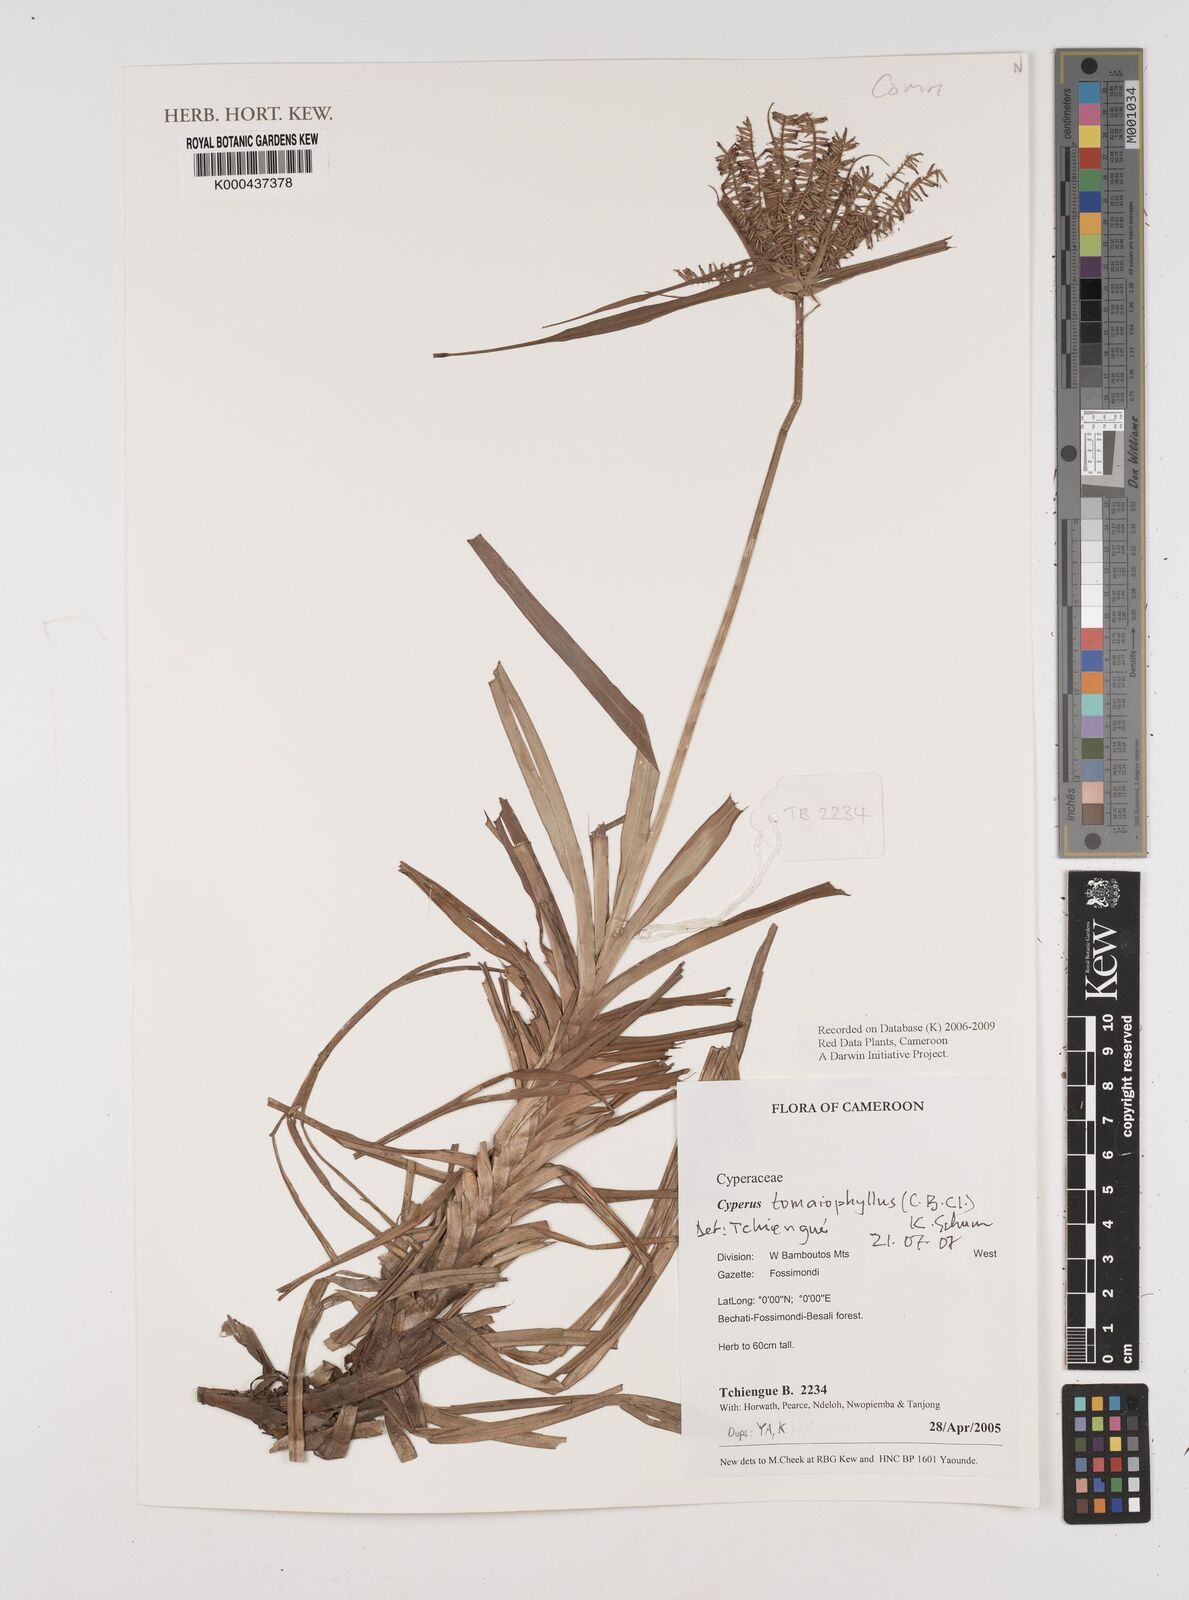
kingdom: Plantae
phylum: Tracheophyta
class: Liliopsida
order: Poales
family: Cyperaceae
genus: Cyperus
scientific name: Cyperus tomaiophyllus
